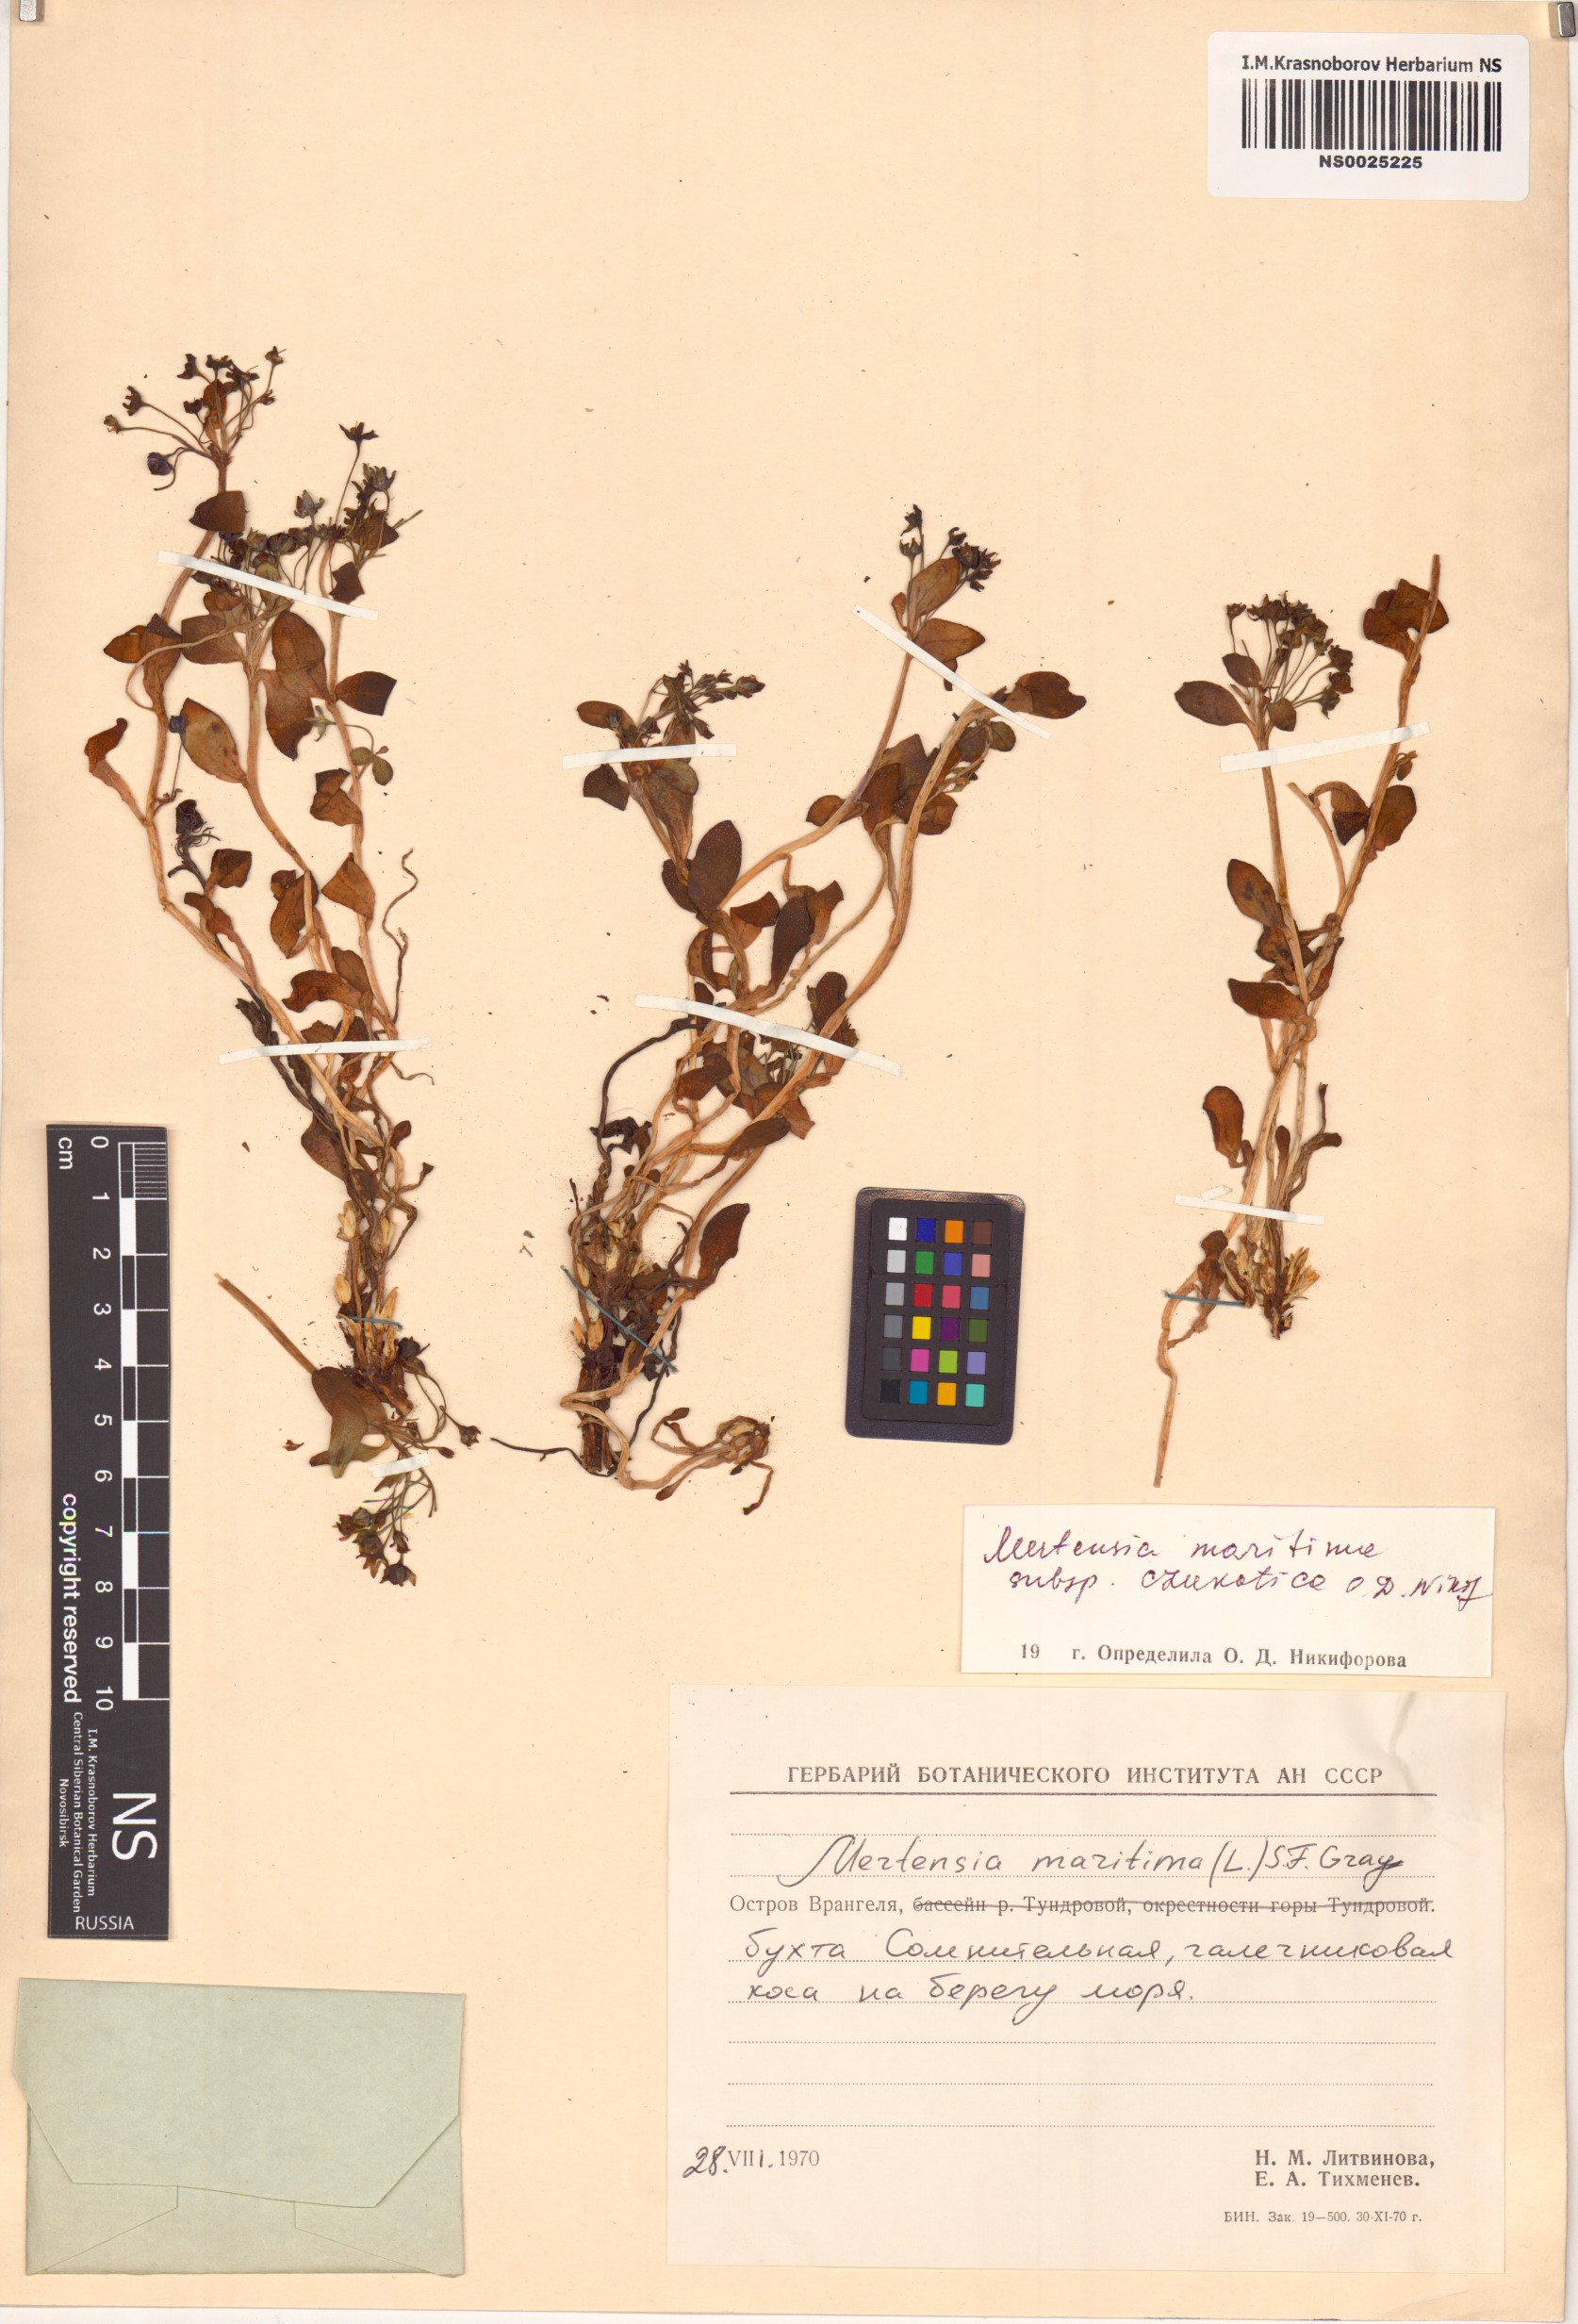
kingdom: Plantae
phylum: Tracheophyta
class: Magnoliopsida
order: Boraginales
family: Boraginaceae
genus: Mertensia
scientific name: Mertensia maritima
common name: Oysterplant
